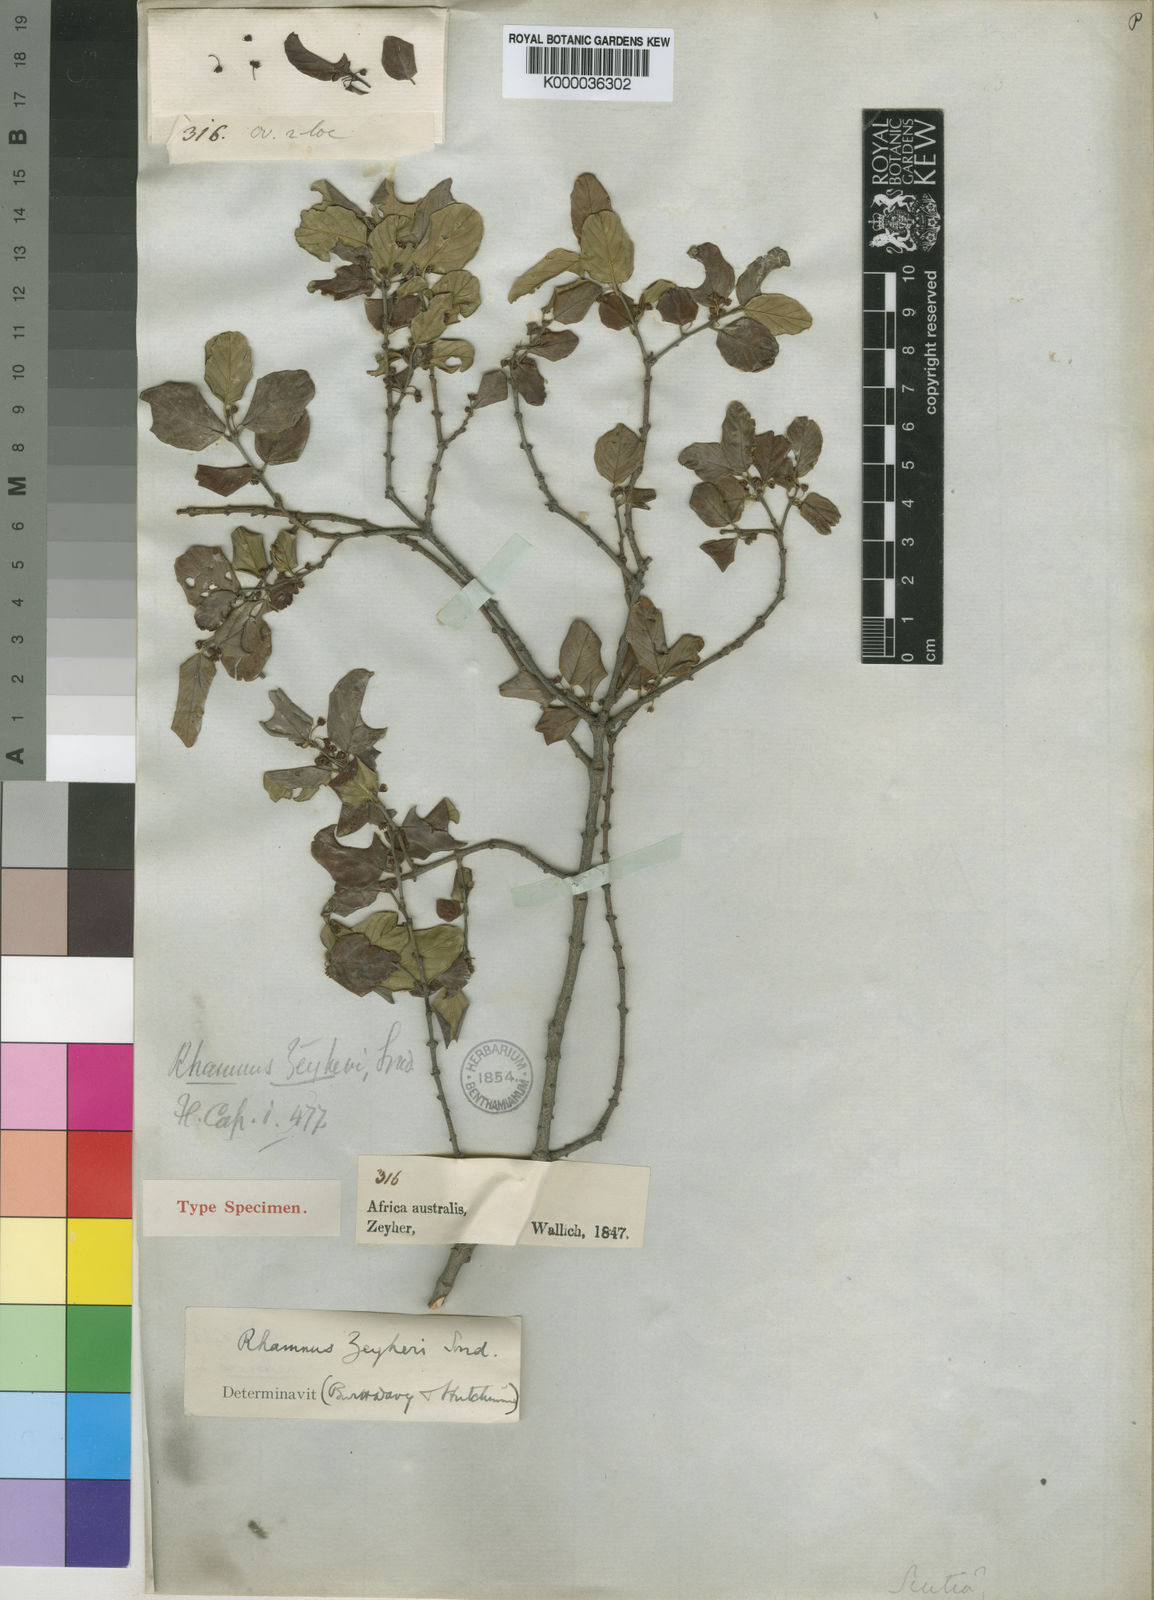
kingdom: Plantae
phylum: Tracheophyta
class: Magnoliopsida
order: Rosales
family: Rhamnaceae
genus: Phyllogeiton
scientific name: Phyllogeiton zeyheri
